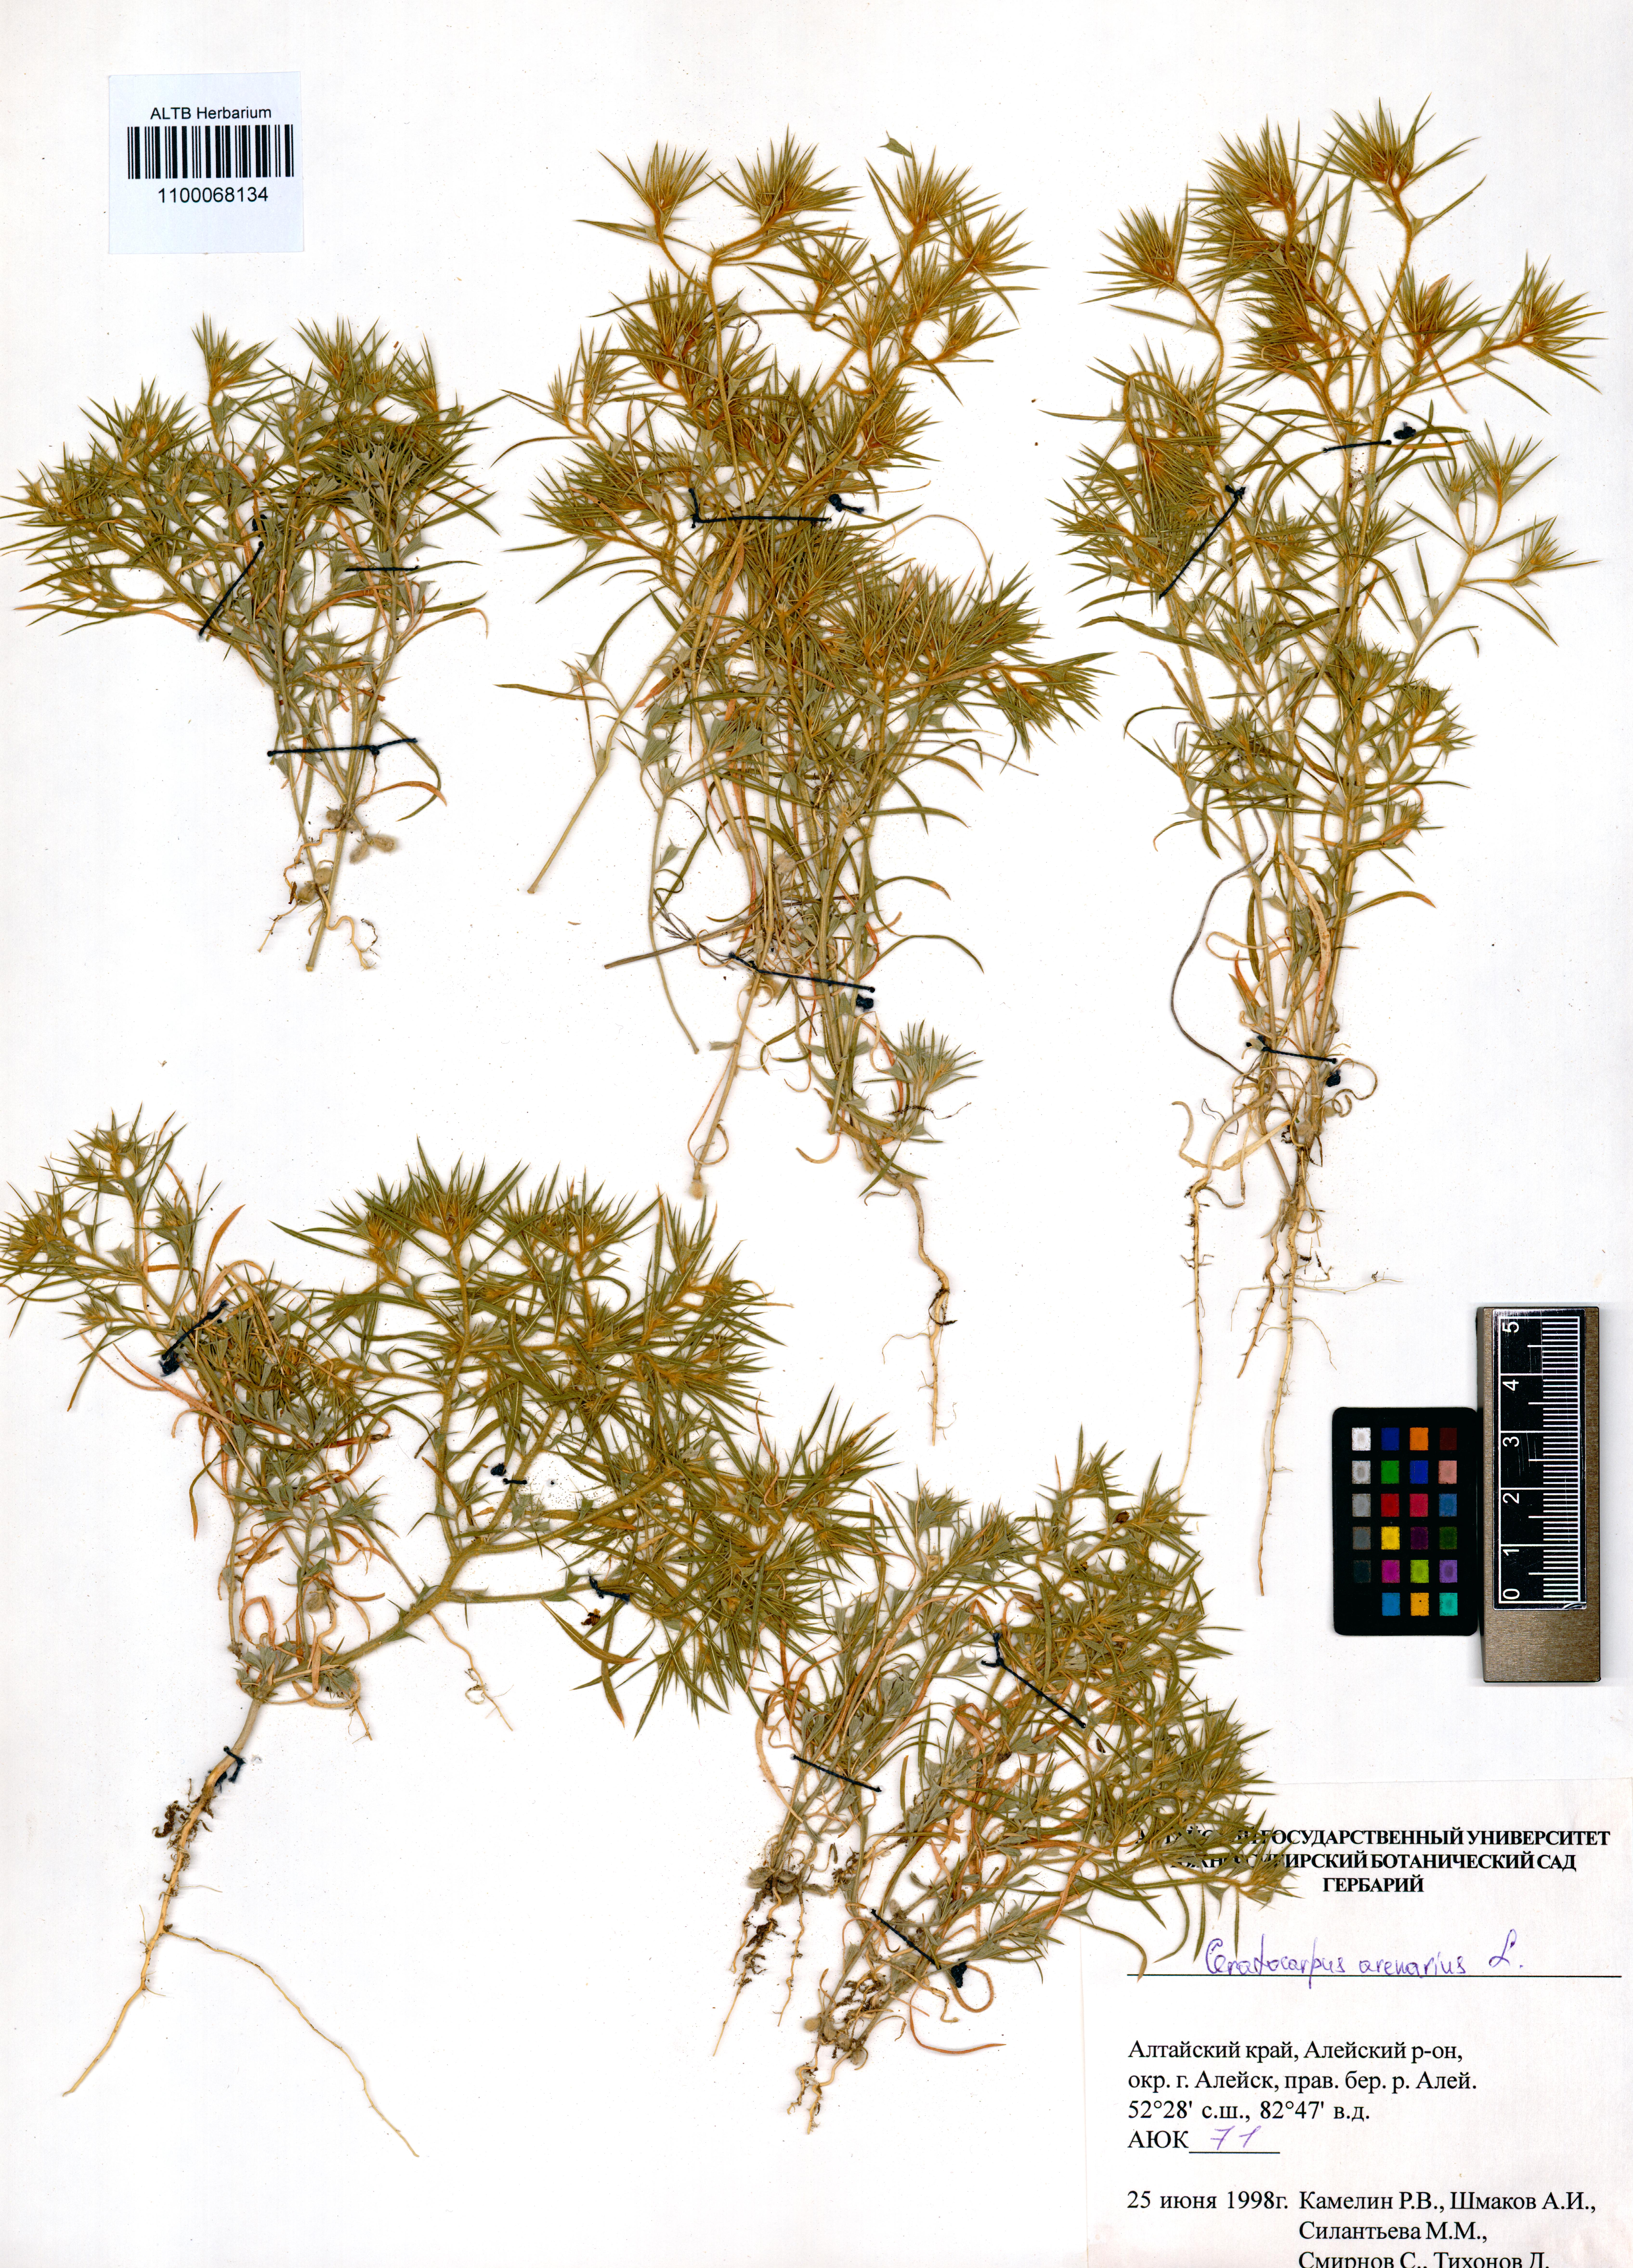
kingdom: Plantae
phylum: Tracheophyta
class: Magnoliopsida
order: Caryophyllales
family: Amaranthaceae
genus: Ceratocarpus
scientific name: Ceratocarpus arenarius
